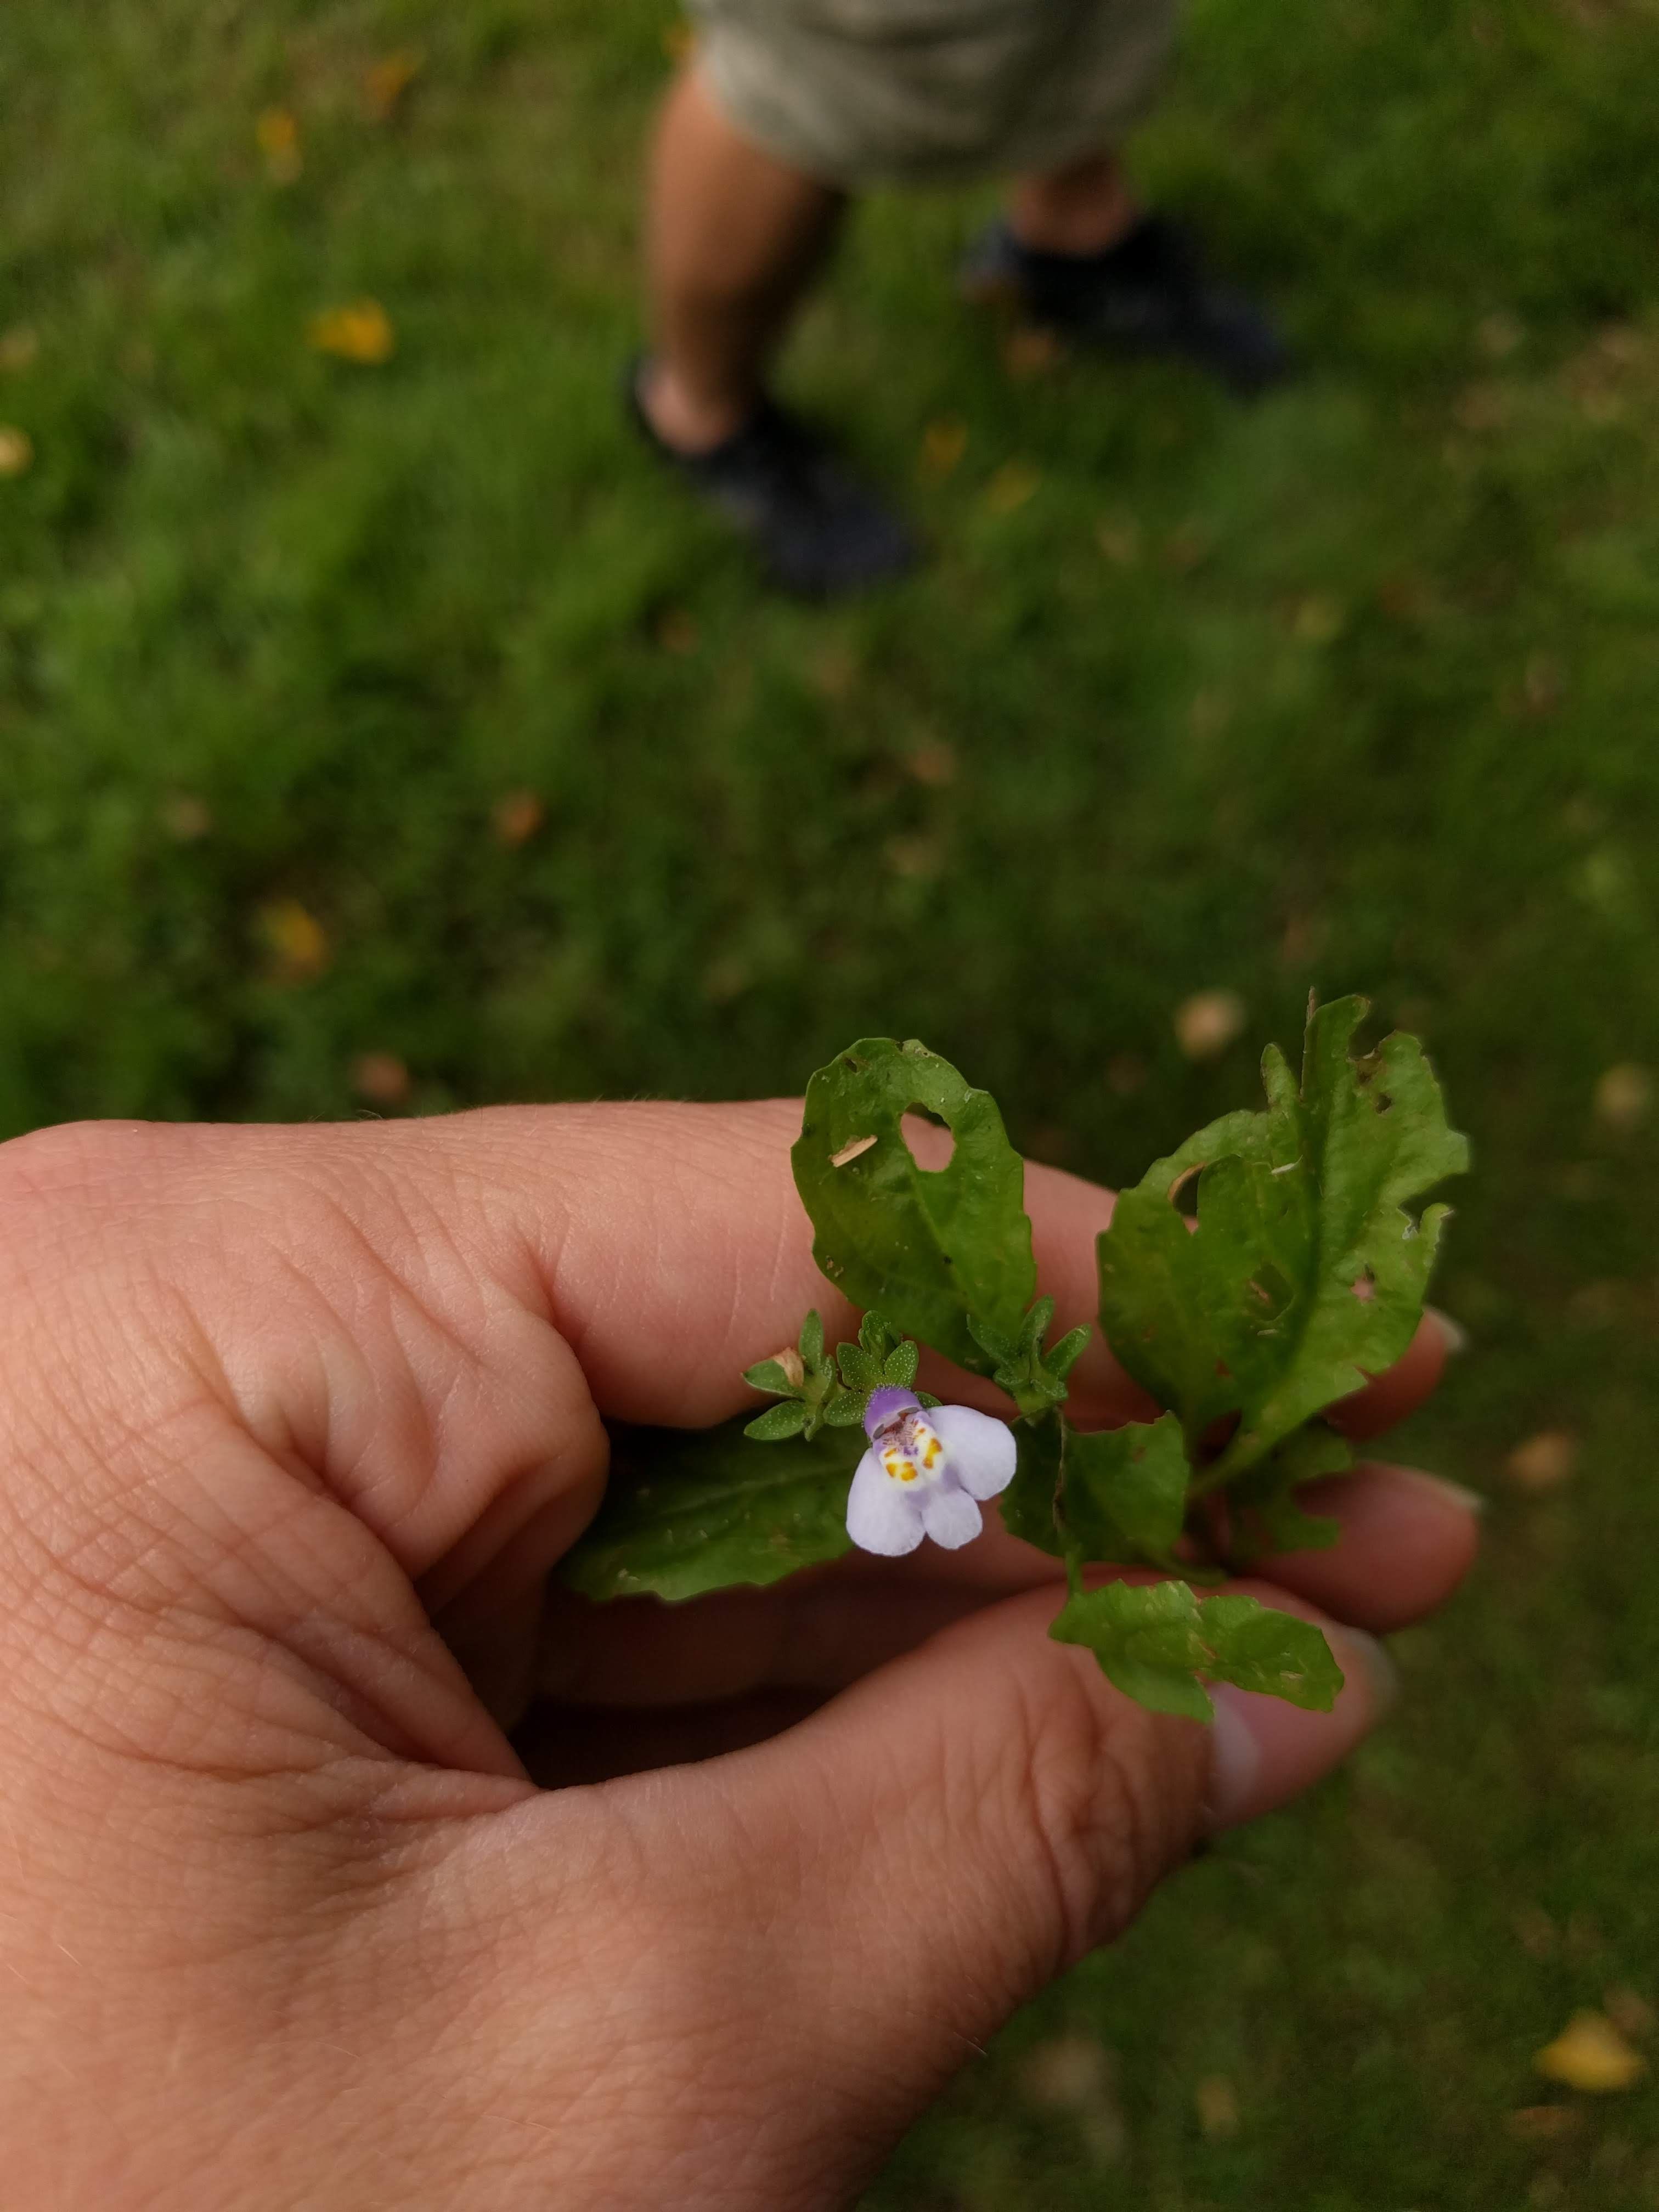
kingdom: Plantae
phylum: Tracheophyta
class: Magnoliopsida
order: Lamiales
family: Mazaceae
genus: Mazus
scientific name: Mazus pumilus
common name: Japanese mazus
